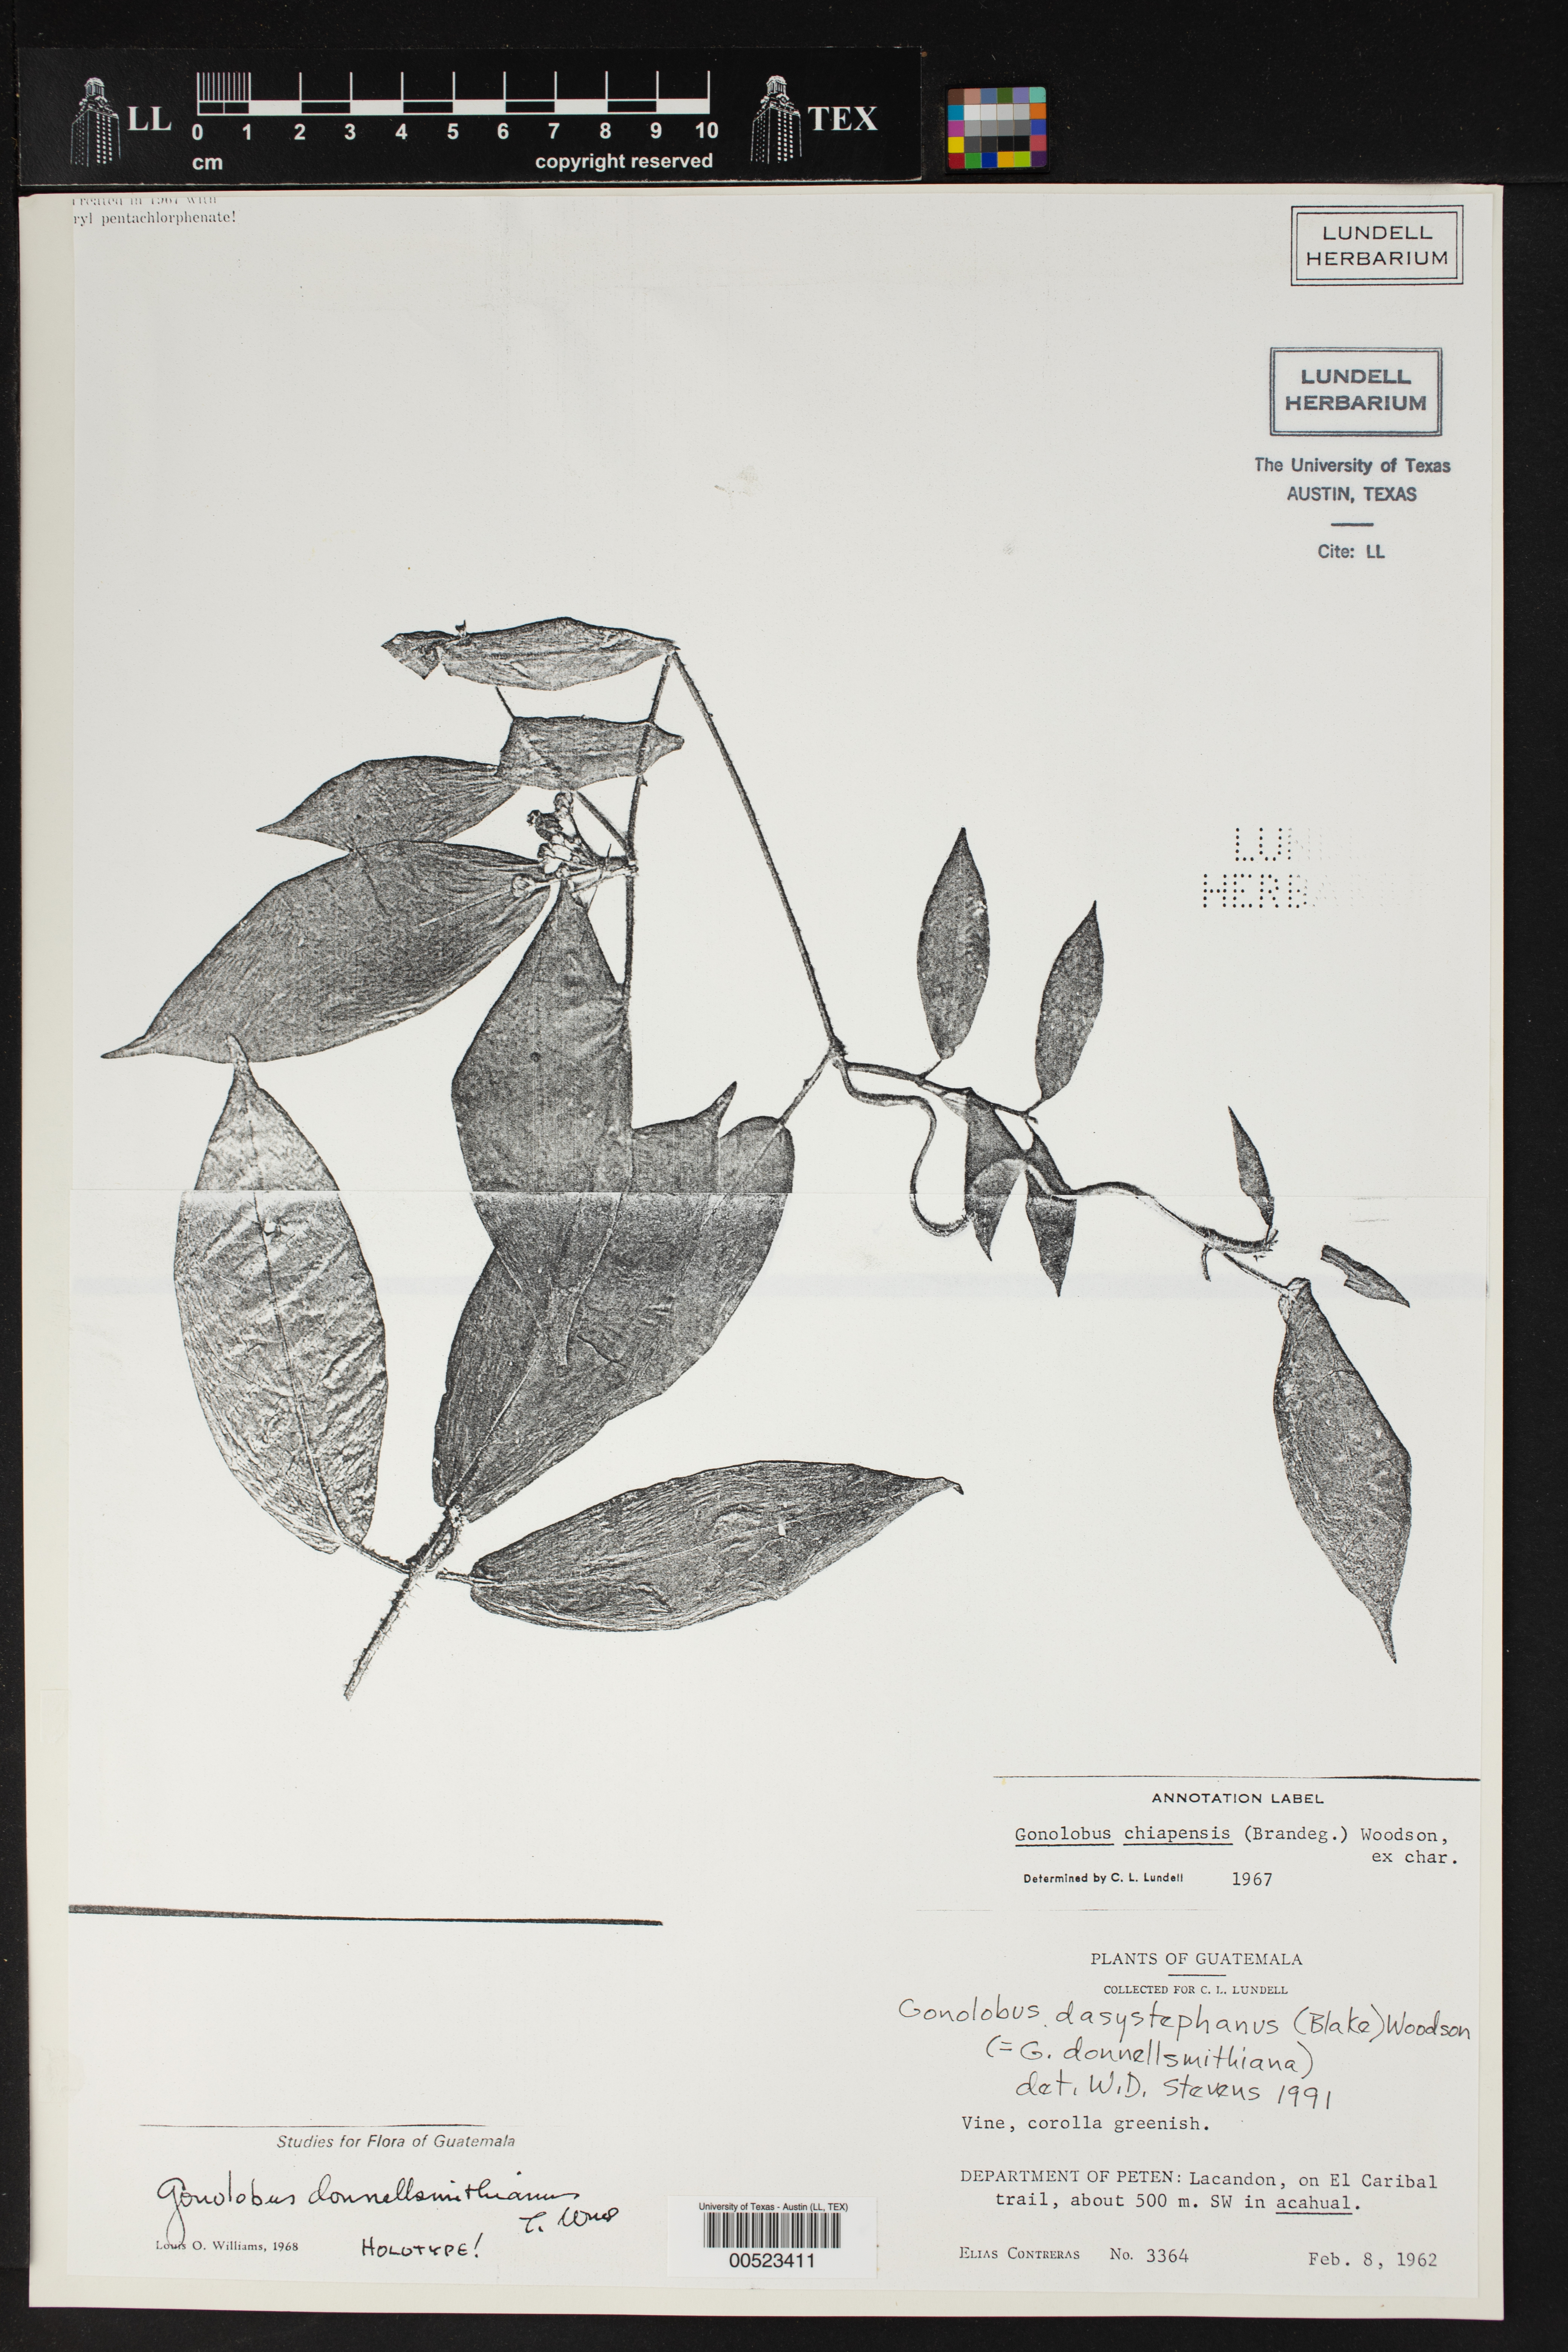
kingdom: Plantae
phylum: Tracheophyta
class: Magnoliopsida
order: Gentianales
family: Apocynaceae
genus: Gonolobus
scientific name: Gonolobus dasystephanus
